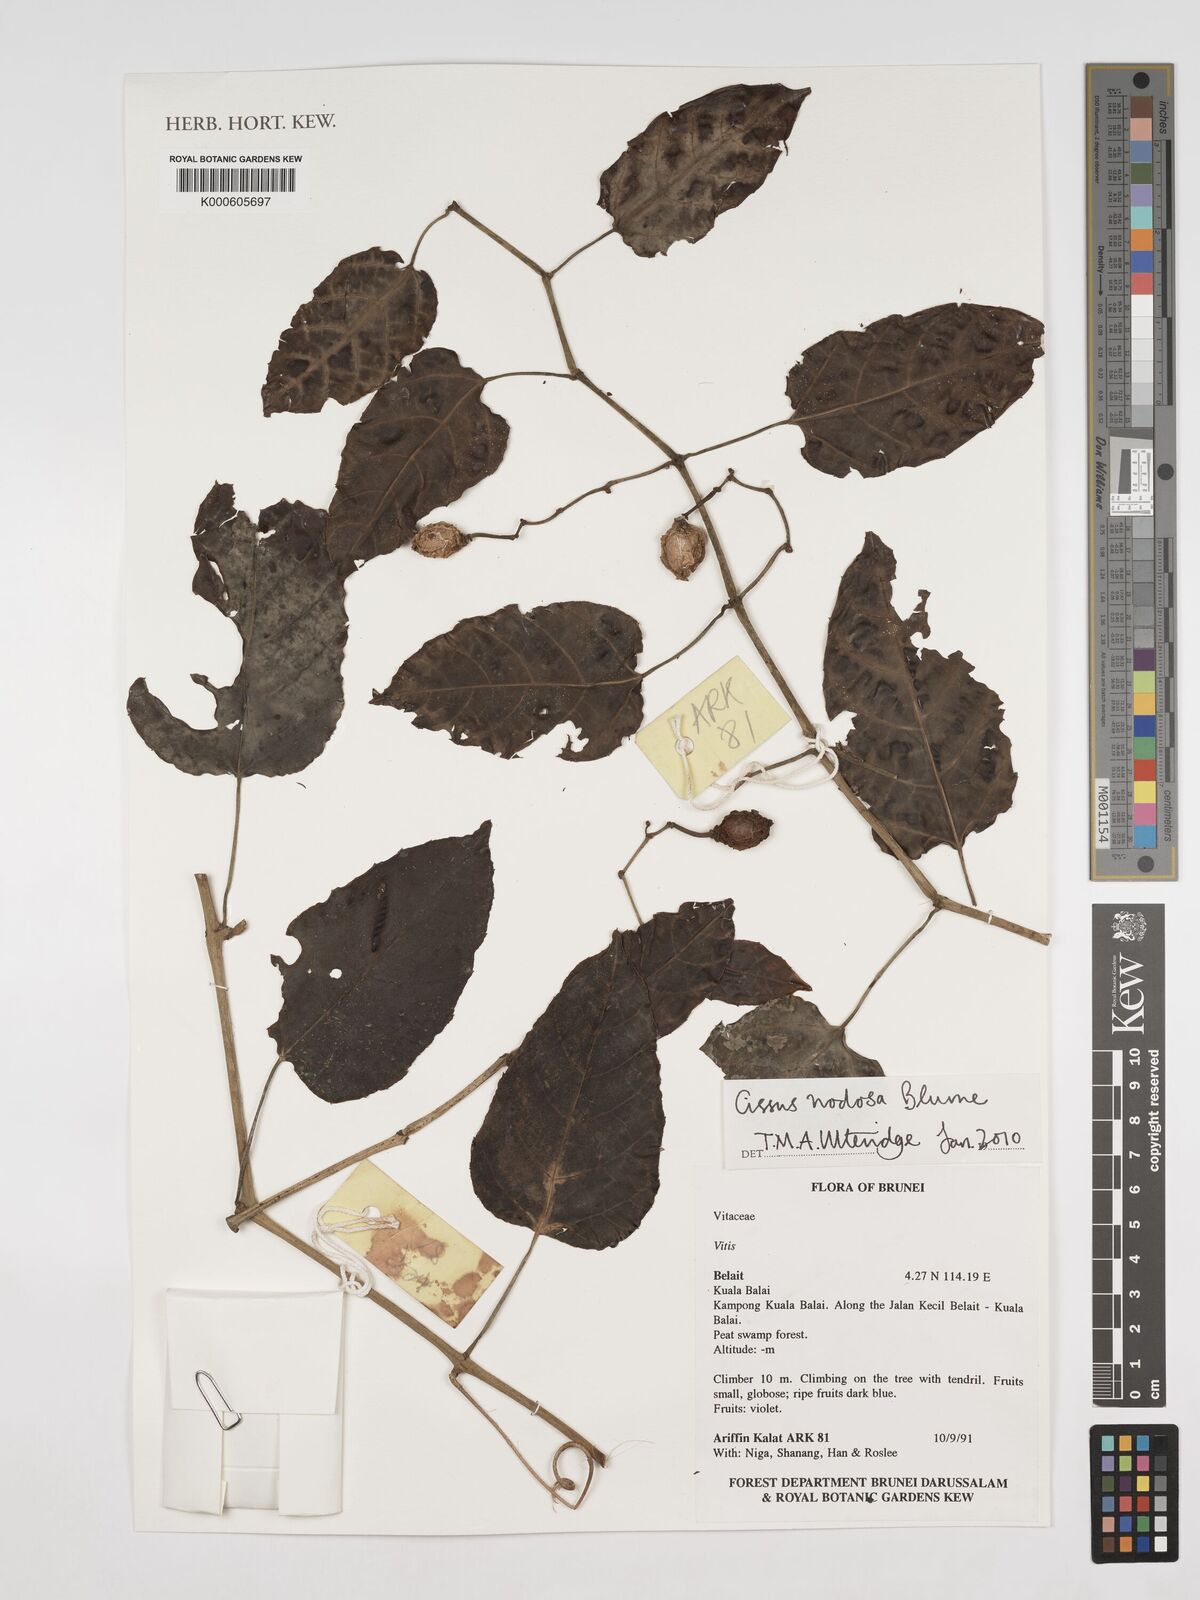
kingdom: Plantae
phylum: Tracheophyta
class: Magnoliopsida
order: Vitales
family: Vitaceae
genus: Cissus
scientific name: Cissus nodosa
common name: Grape ivy
